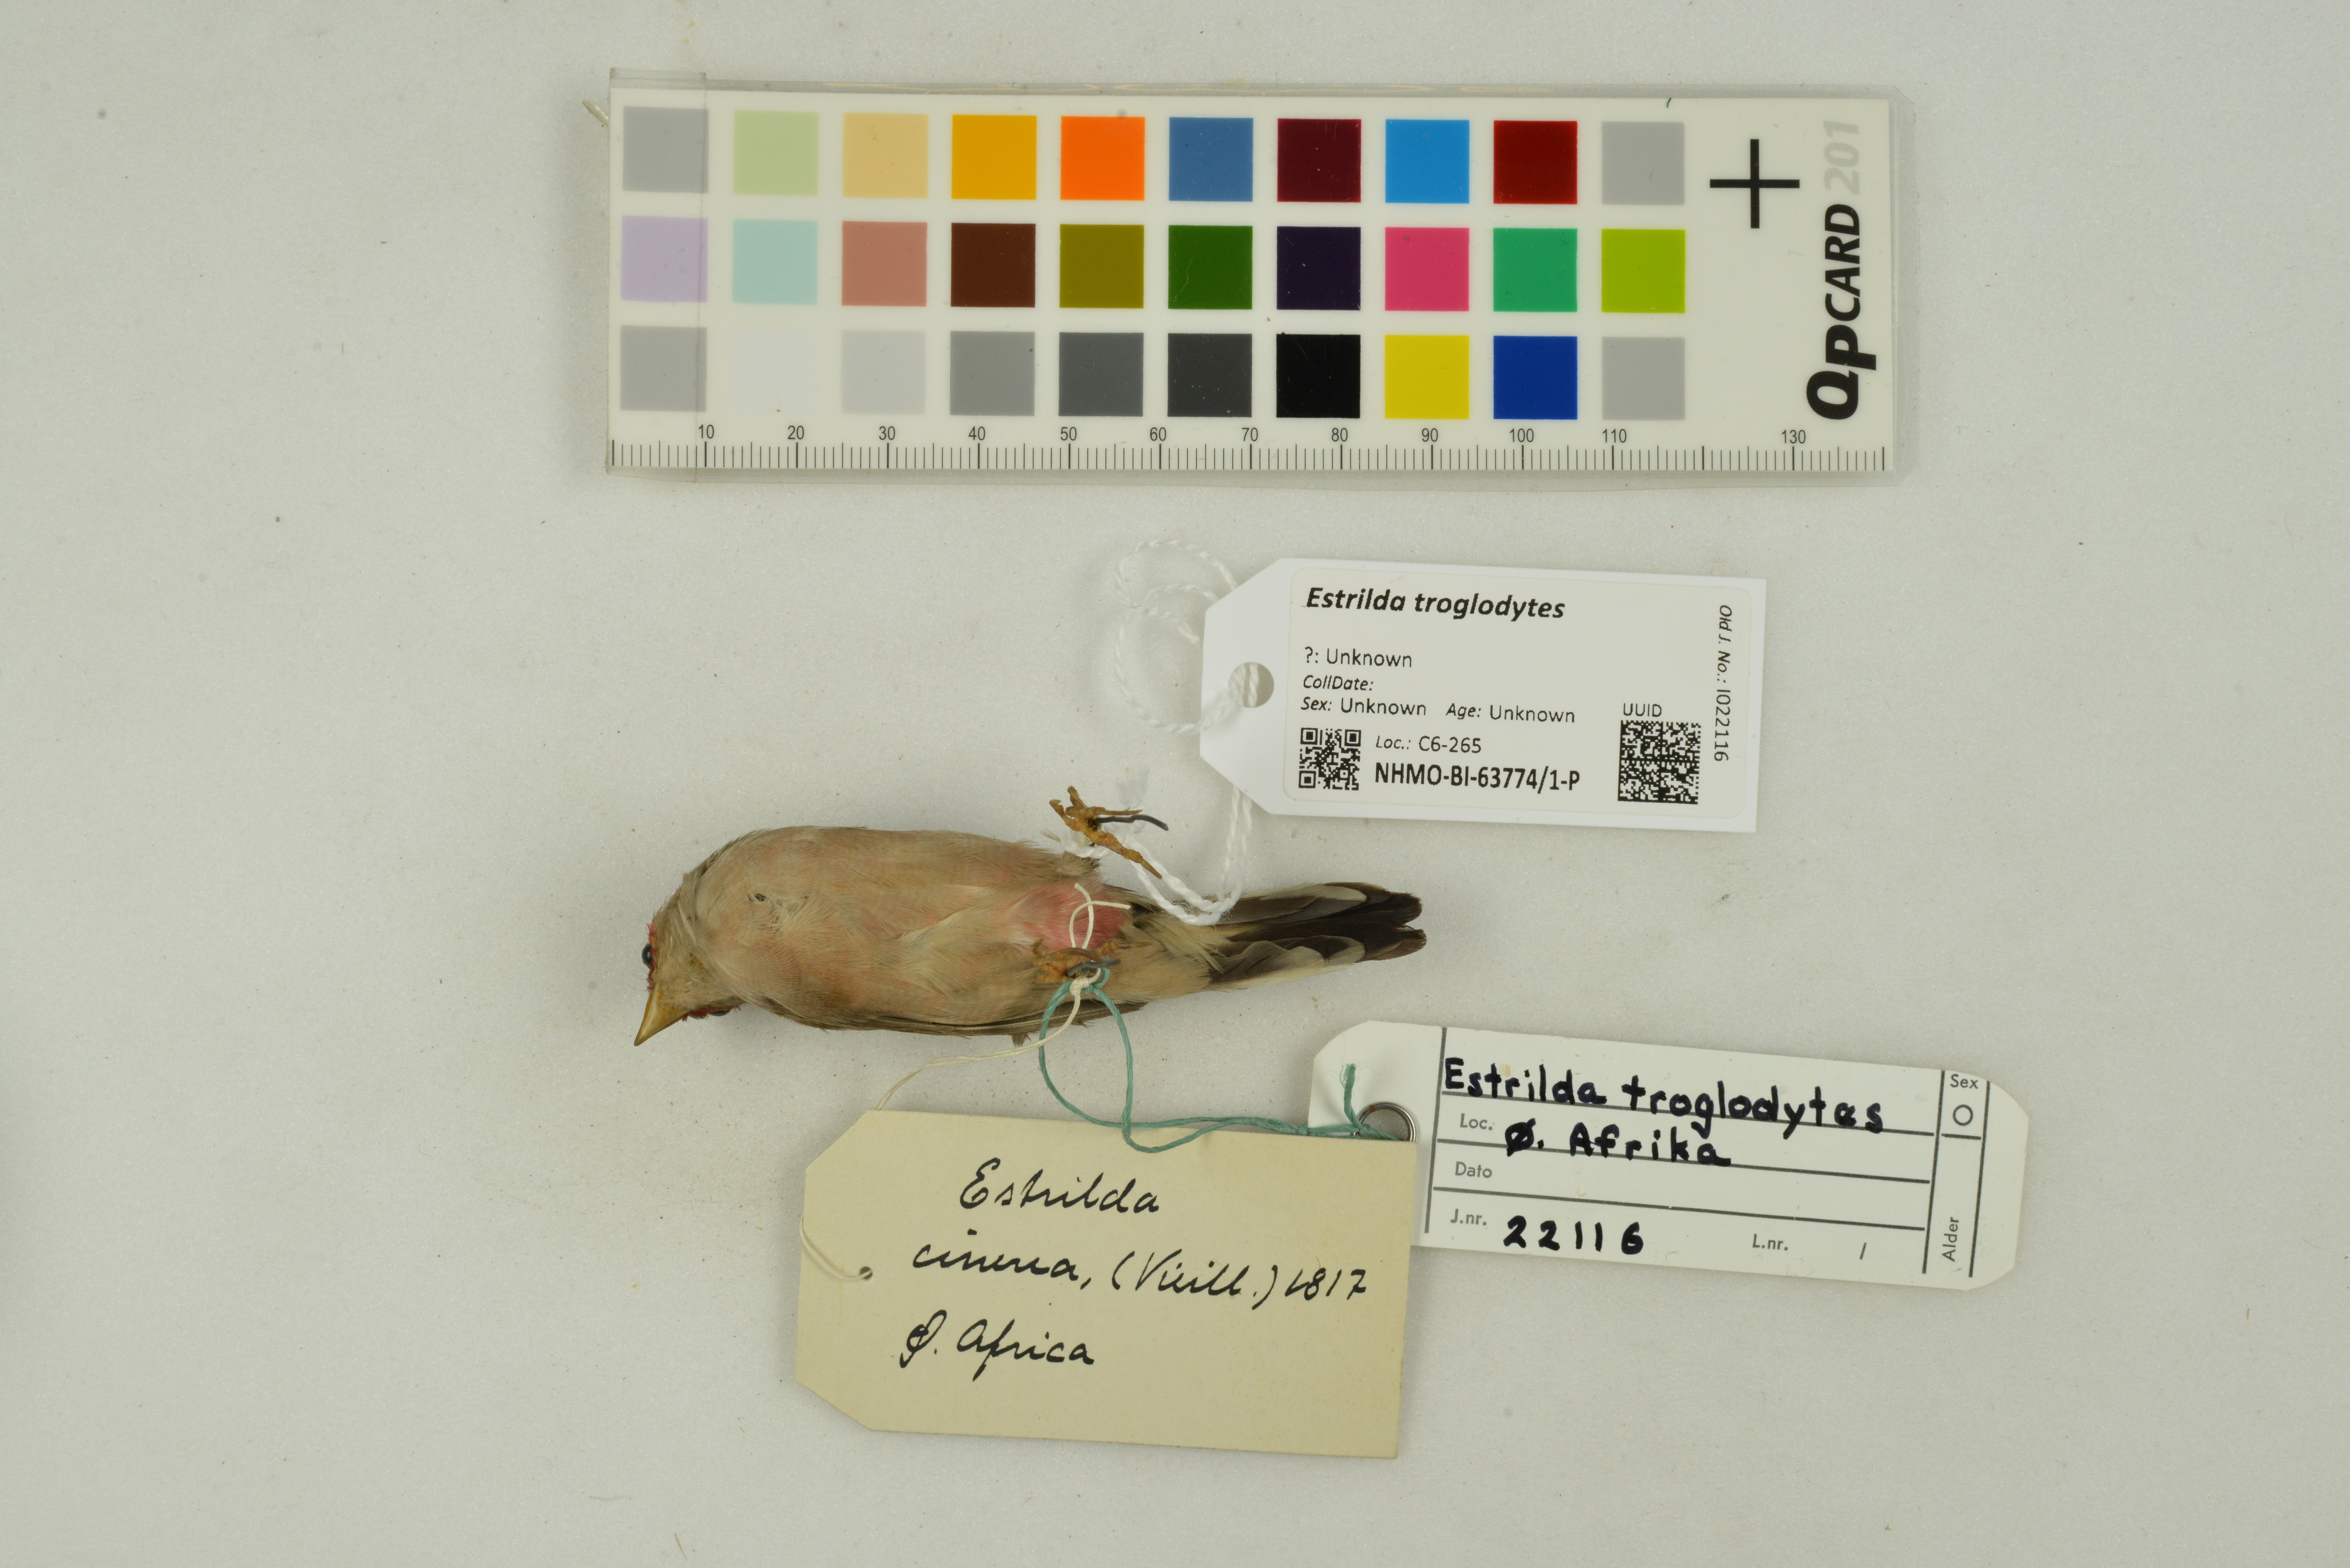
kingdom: Animalia
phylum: Chordata
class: Aves
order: Passeriformes
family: Estrildidae
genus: Estrilda
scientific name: Estrilda troglodytes
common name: Black-rumped waxbill
